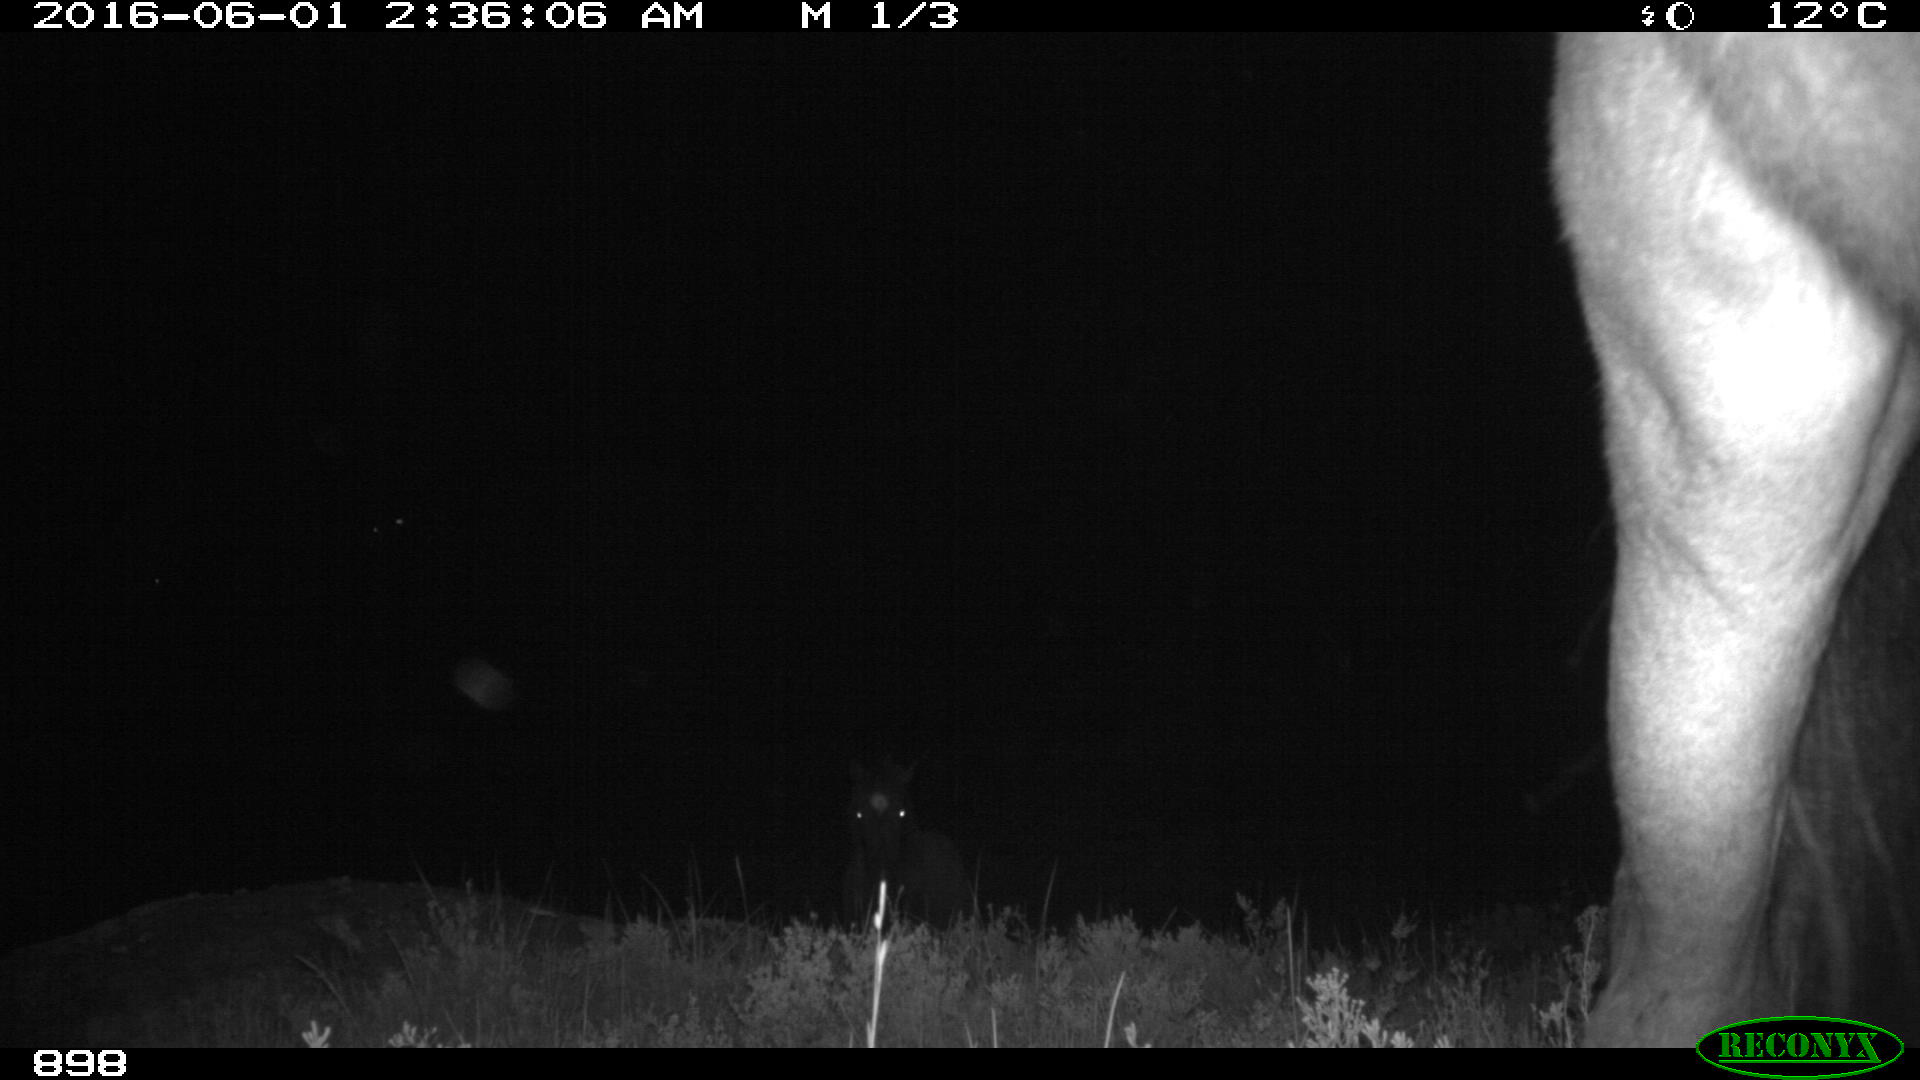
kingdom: Animalia
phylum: Chordata
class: Mammalia
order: Perissodactyla
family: Equidae
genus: Equus
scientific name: Equus caballus
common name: Horse
